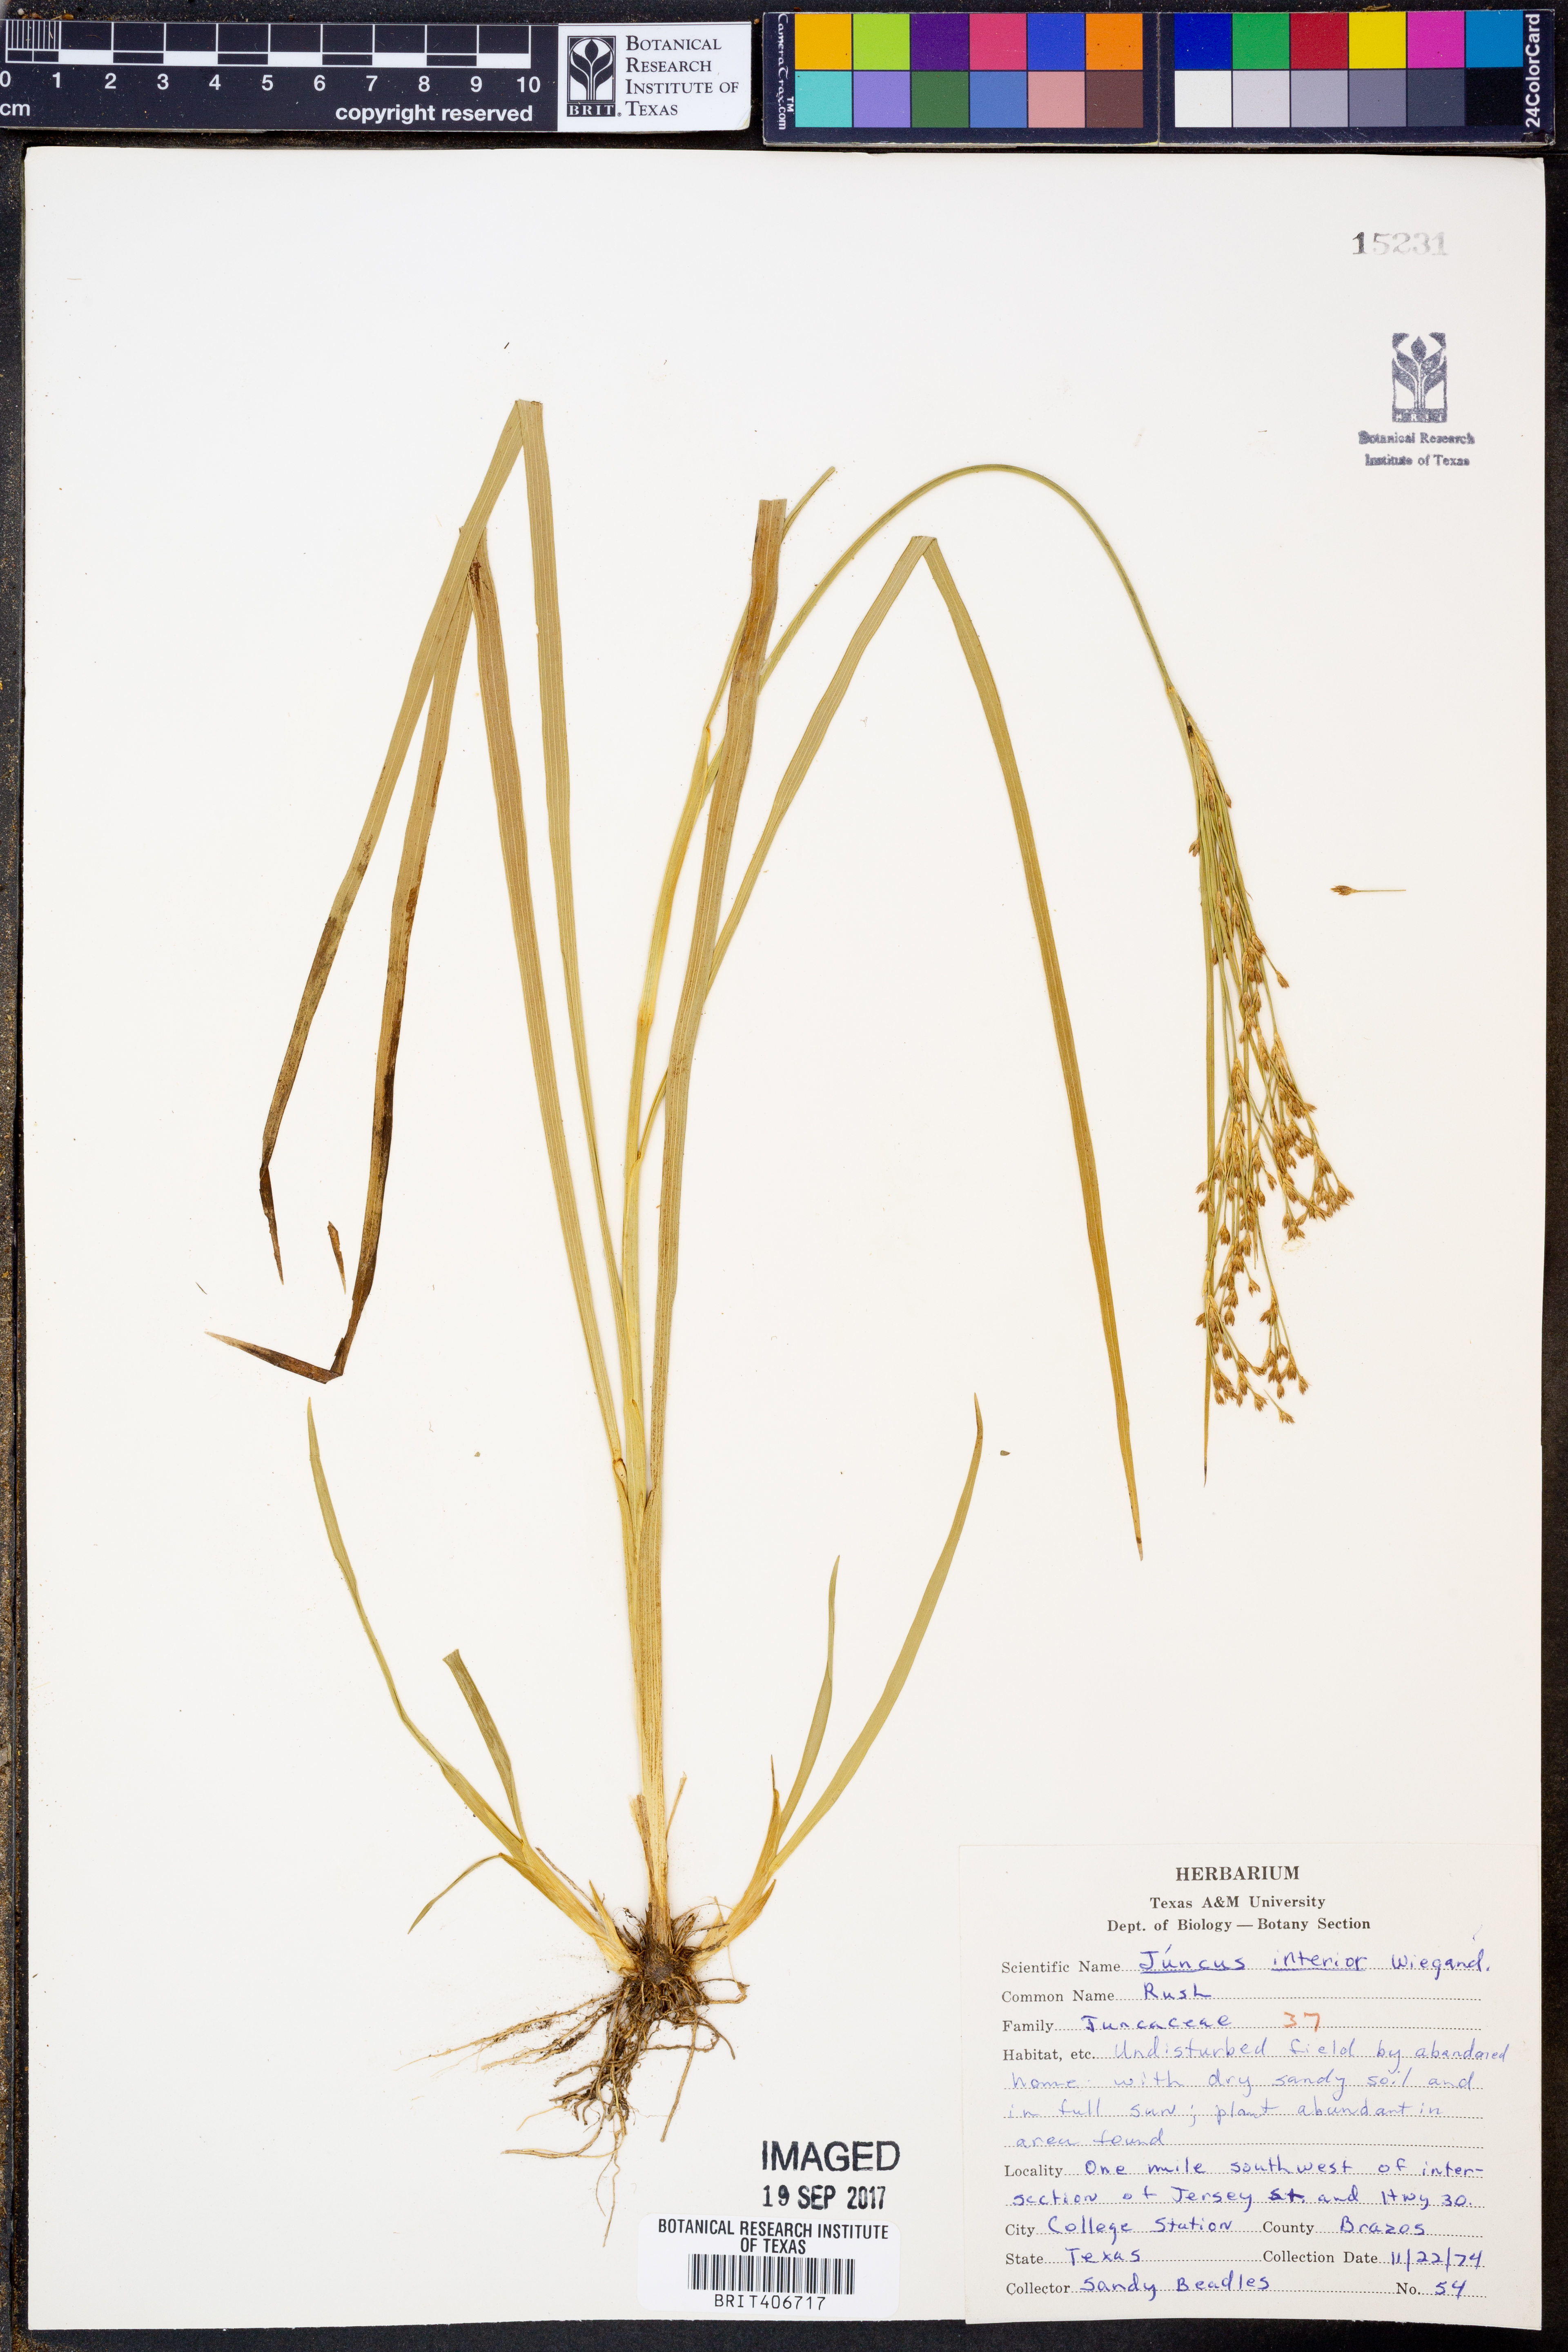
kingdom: Plantae
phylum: Tracheophyta
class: Liliopsida
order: Poales
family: Juncaceae
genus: Juncus
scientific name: Juncus interior
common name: Interior rush
